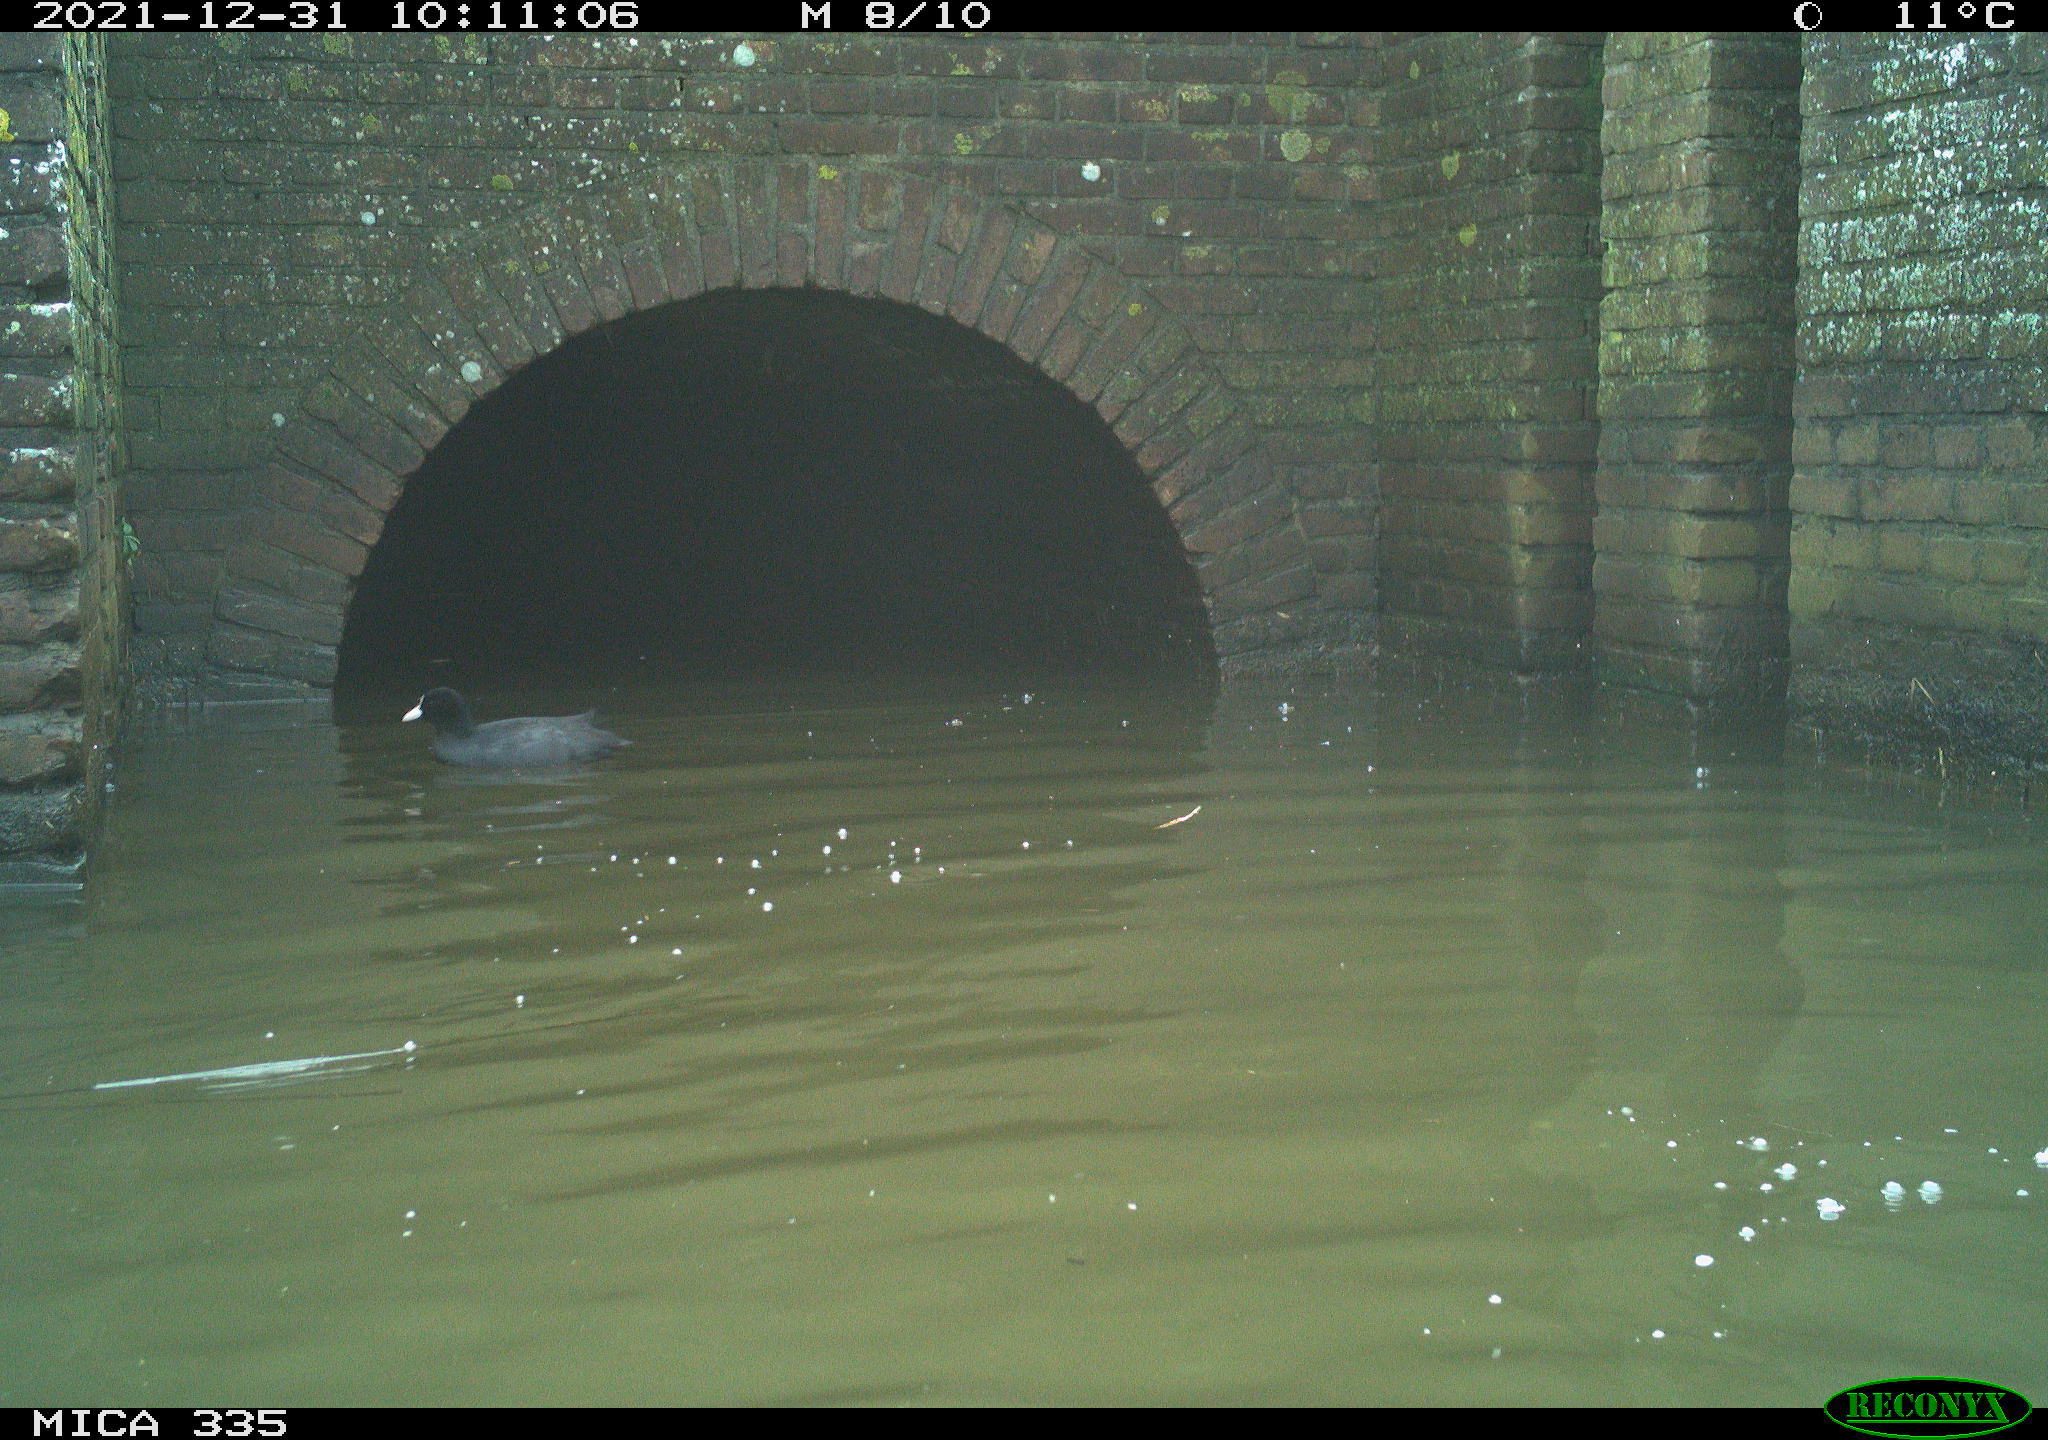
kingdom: Animalia
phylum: Chordata
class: Aves
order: Gruiformes
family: Rallidae
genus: Fulica
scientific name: Fulica atra
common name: Eurasian coot
